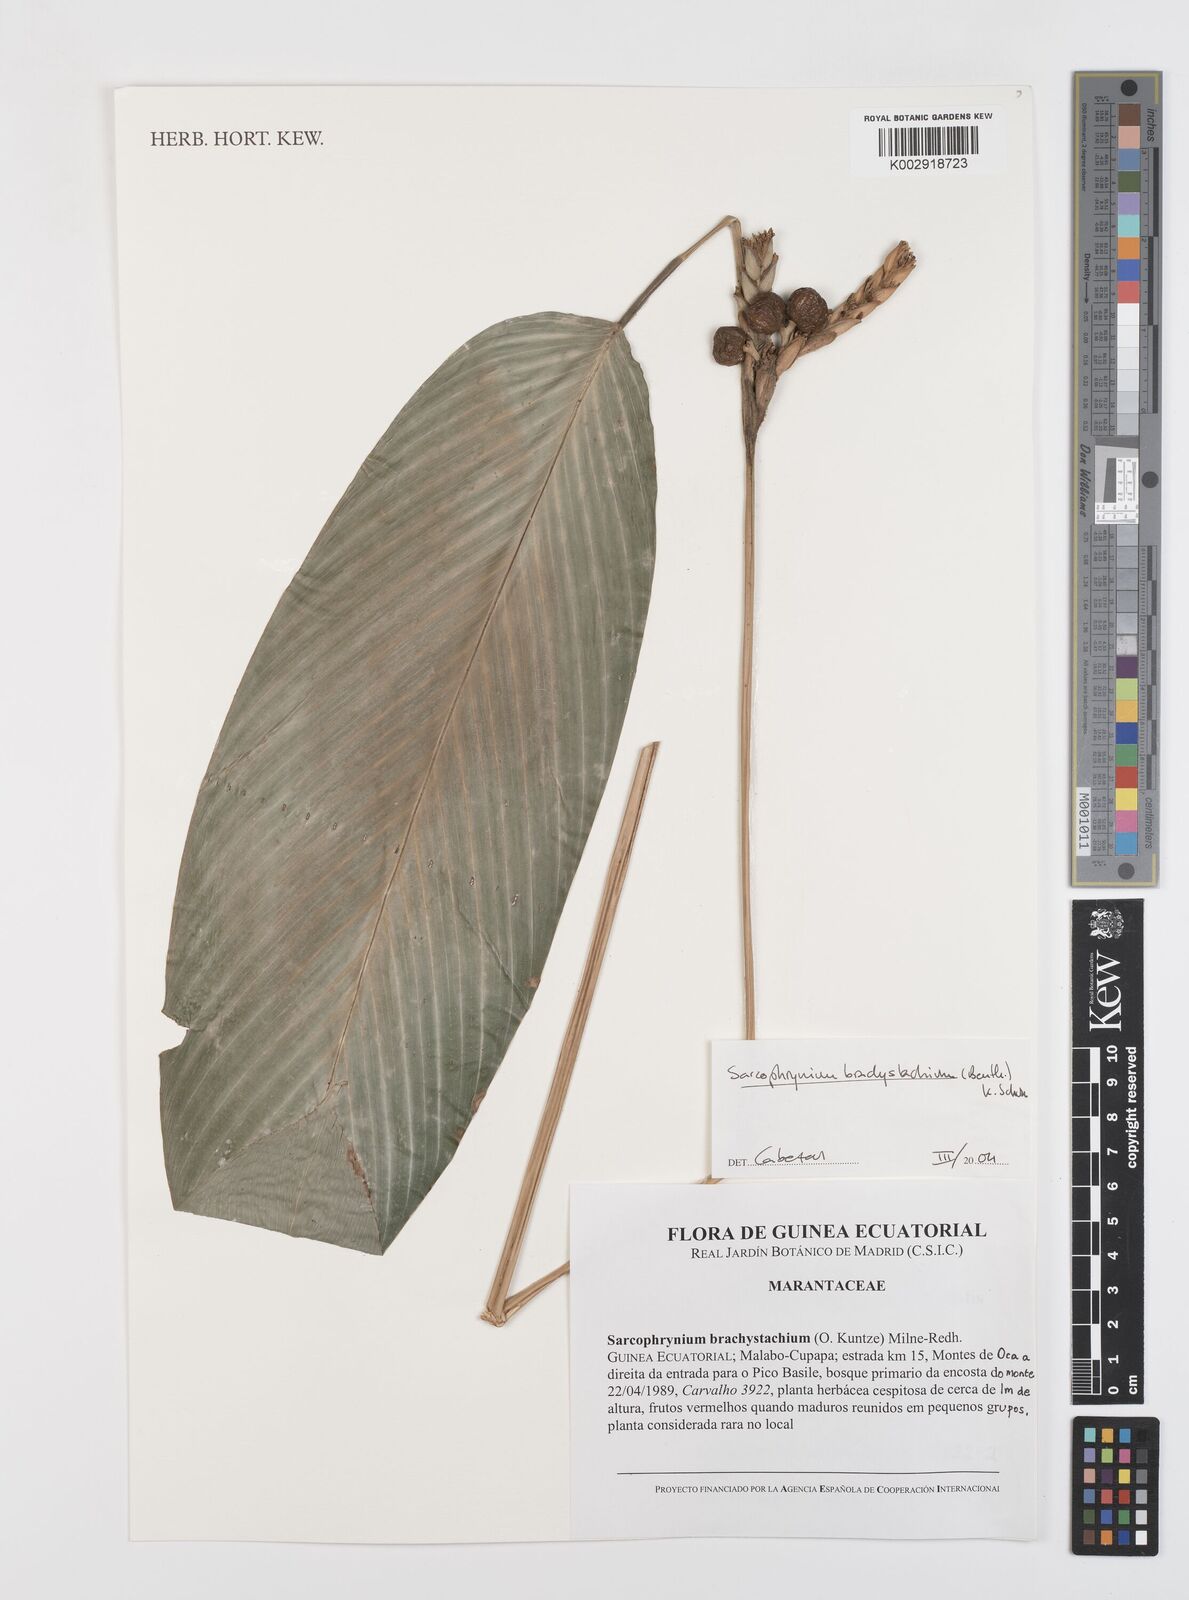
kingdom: Plantae
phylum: Tracheophyta
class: Liliopsida
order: Zingiberales
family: Marantaceae
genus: Sarcophrynium
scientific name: Sarcophrynium brachystachyum
